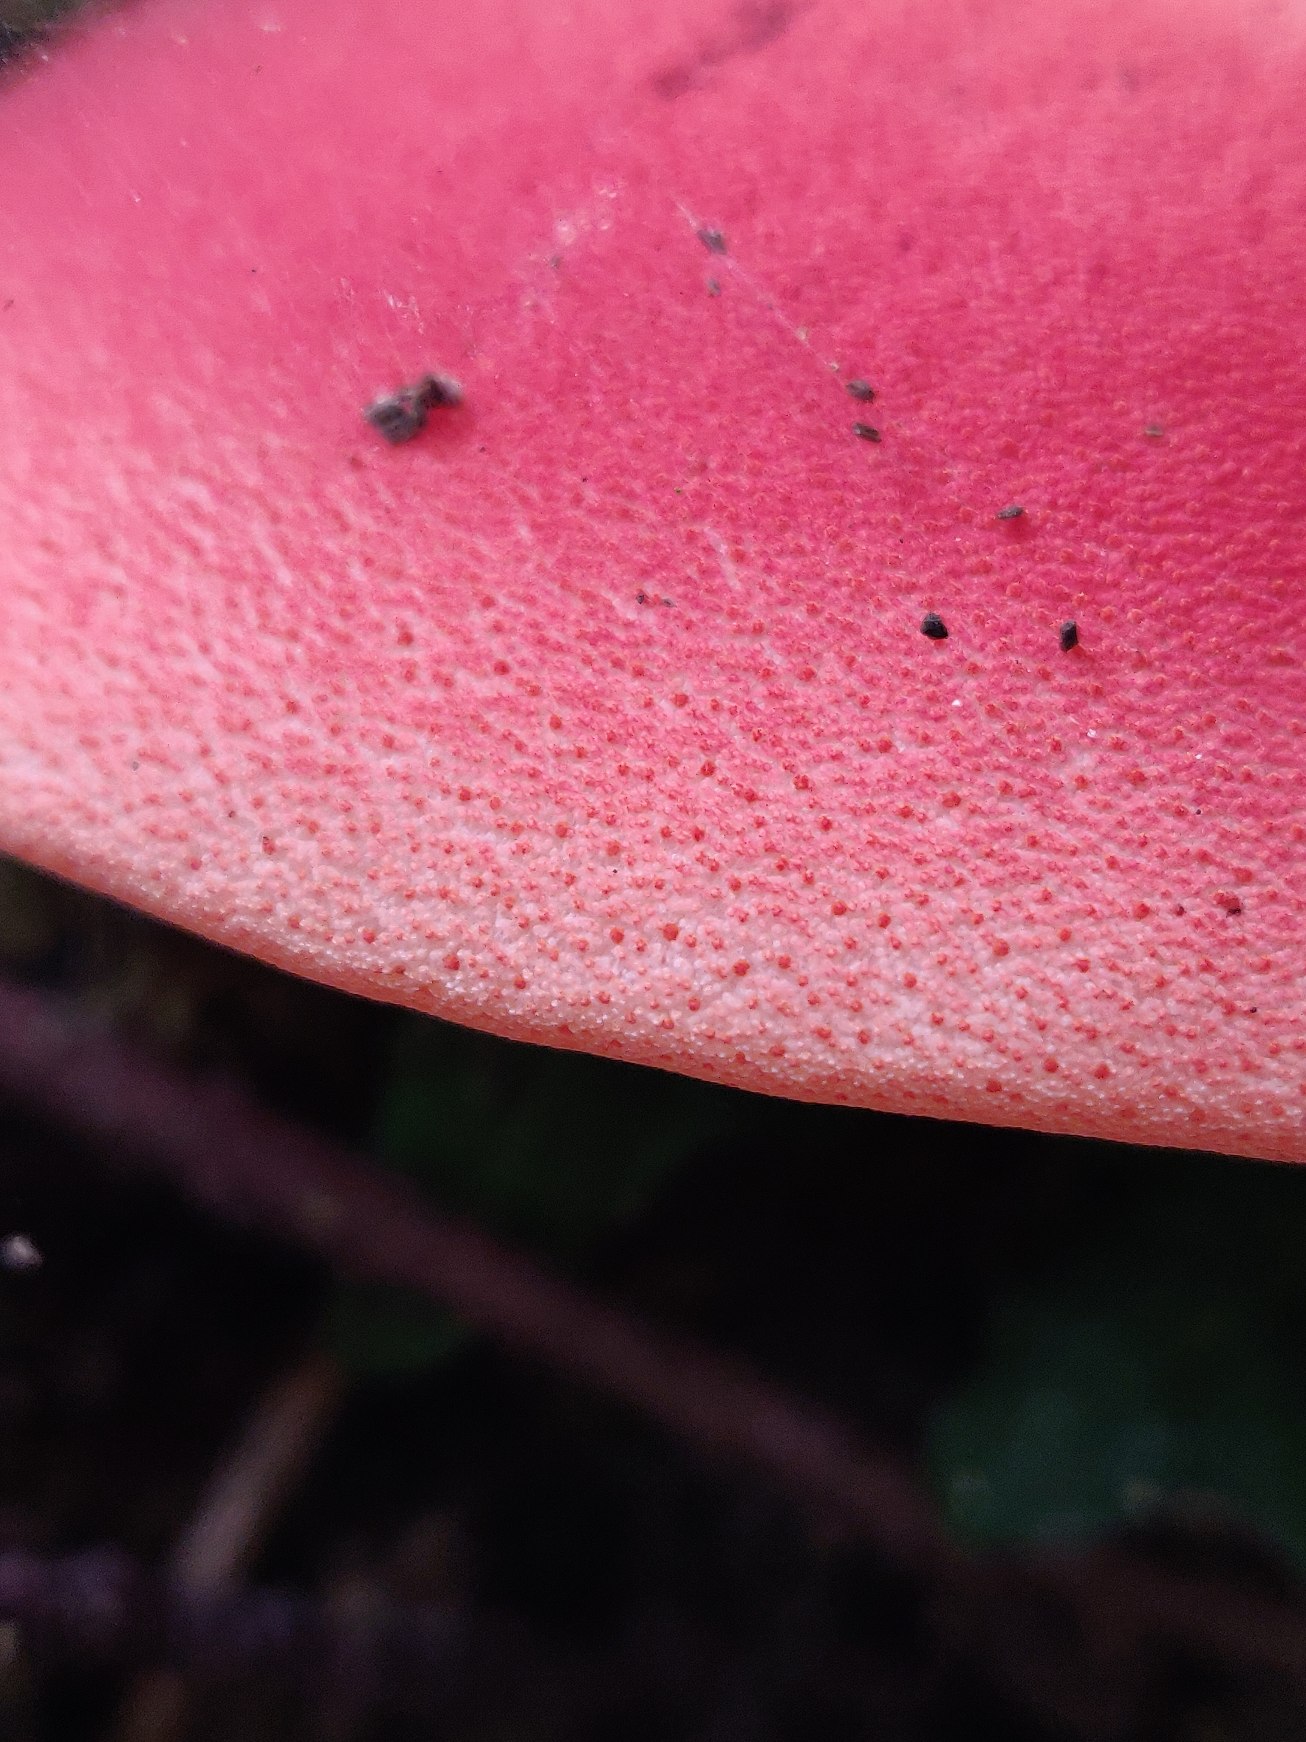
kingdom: Fungi
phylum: Basidiomycota
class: Agaricomycetes
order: Agaricales
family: Fistulinaceae
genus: Fistulina
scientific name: Fistulina hepatica
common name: Oksetunge
